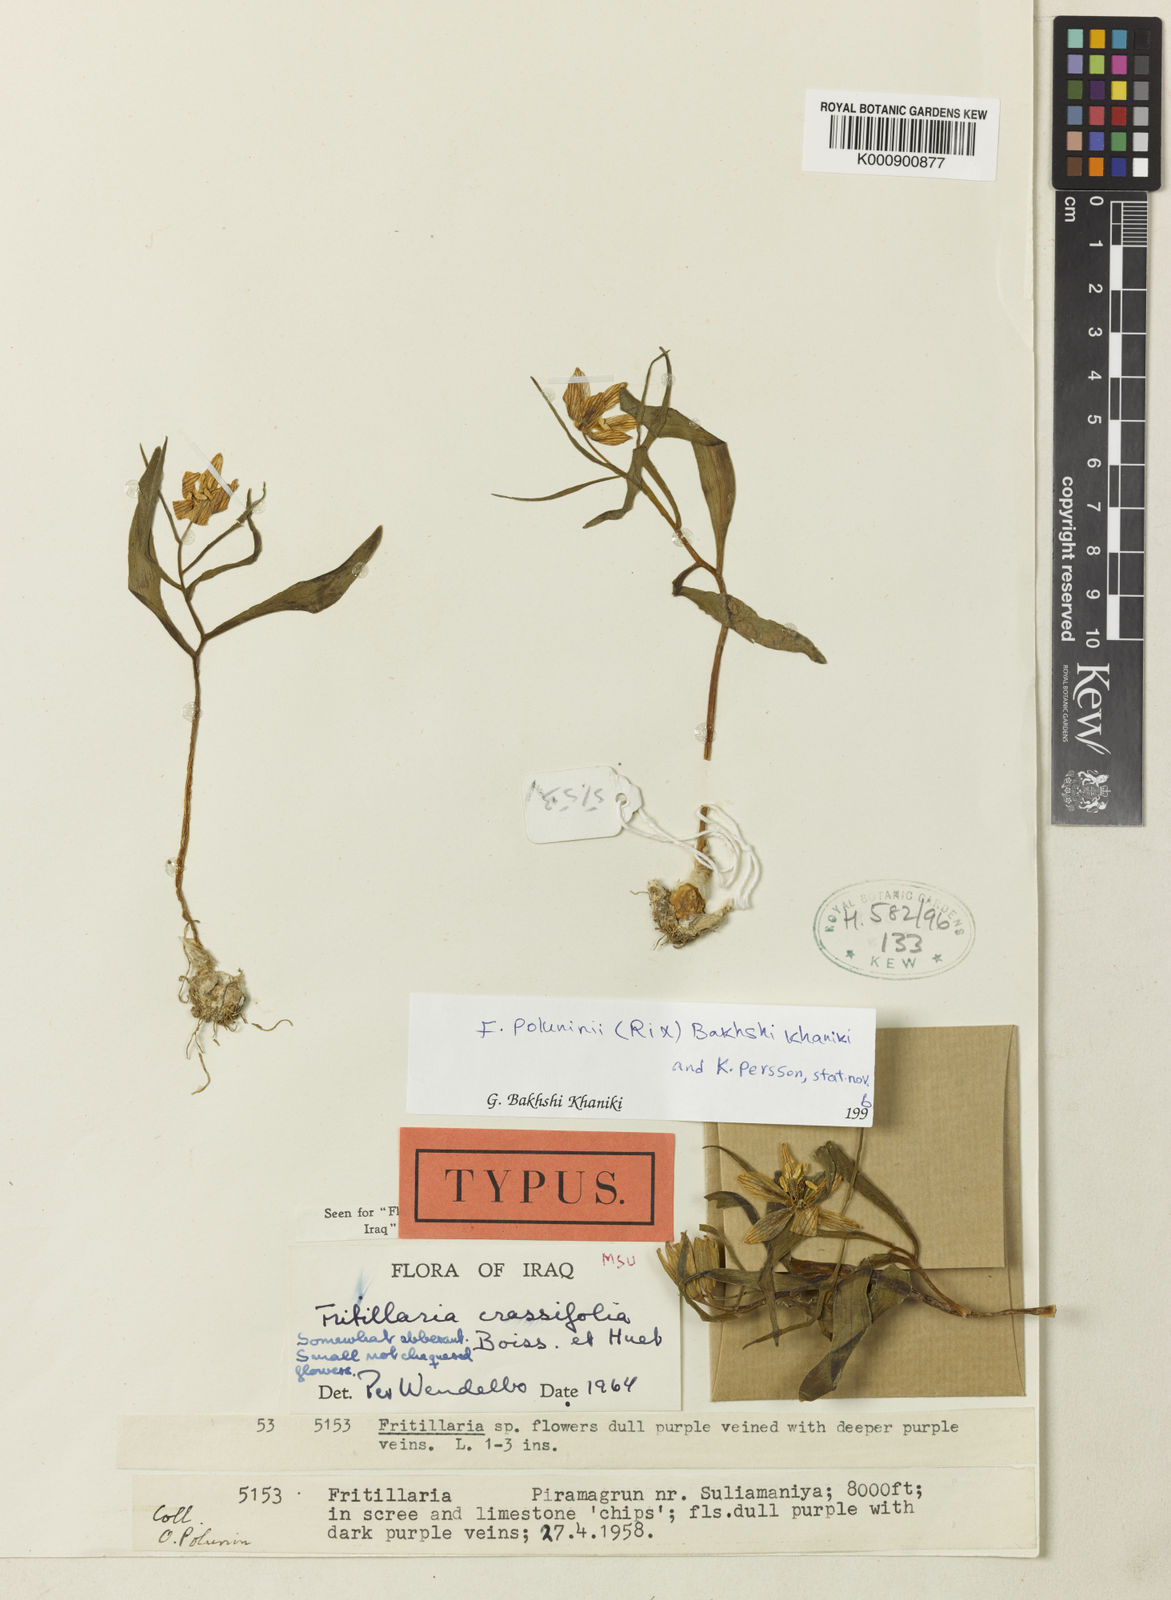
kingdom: Plantae
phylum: Tracheophyta
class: Liliopsida
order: Liliales
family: Liliaceae
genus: Fritillaria
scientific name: Fritillaria crassifolia
